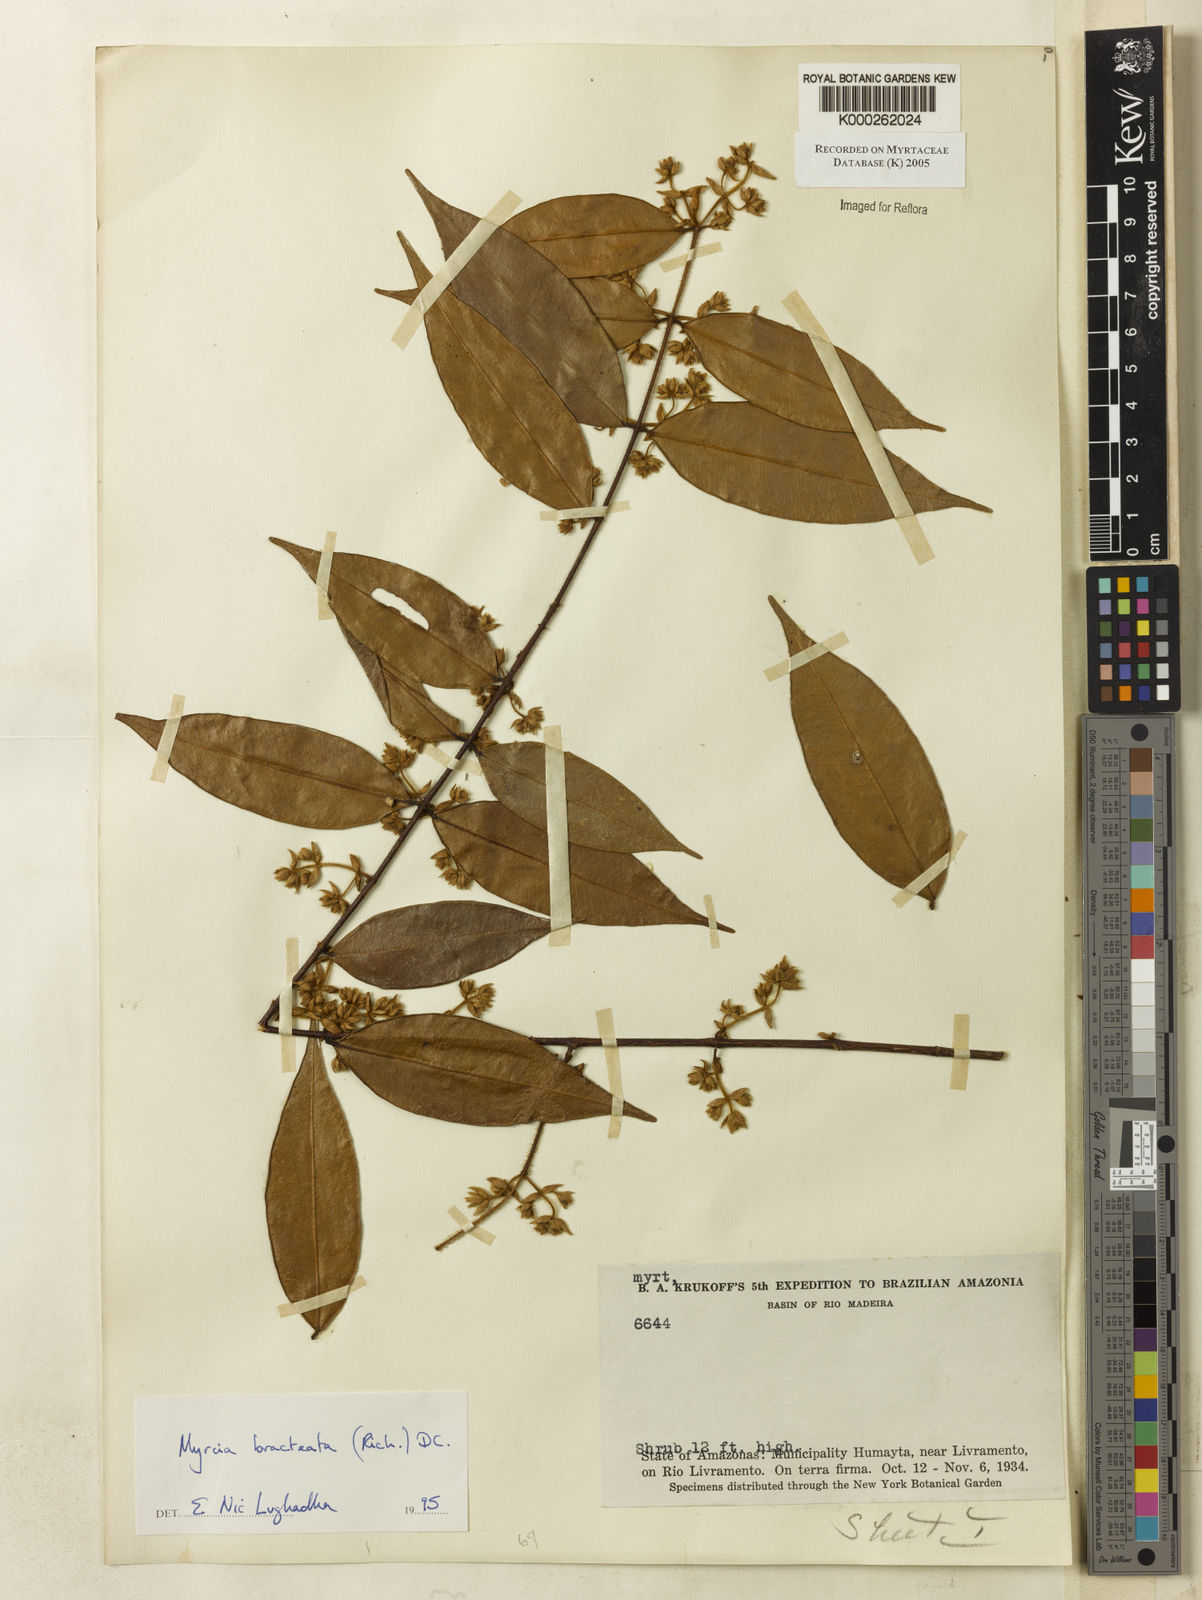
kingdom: Plantae
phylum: Tracheophyta
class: Magnoliopsida
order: Myrtales
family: Myrtaceae
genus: Myrcia
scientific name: Myrcia bracteata
